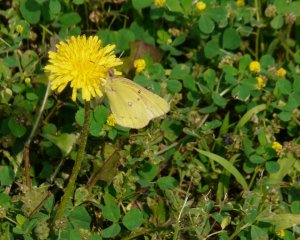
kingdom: Animalia
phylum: Arthropoda
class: Insecta
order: Lepidoptera
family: Pieridae
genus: Colias
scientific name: Colias philodice
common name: Clouded Sulphur
